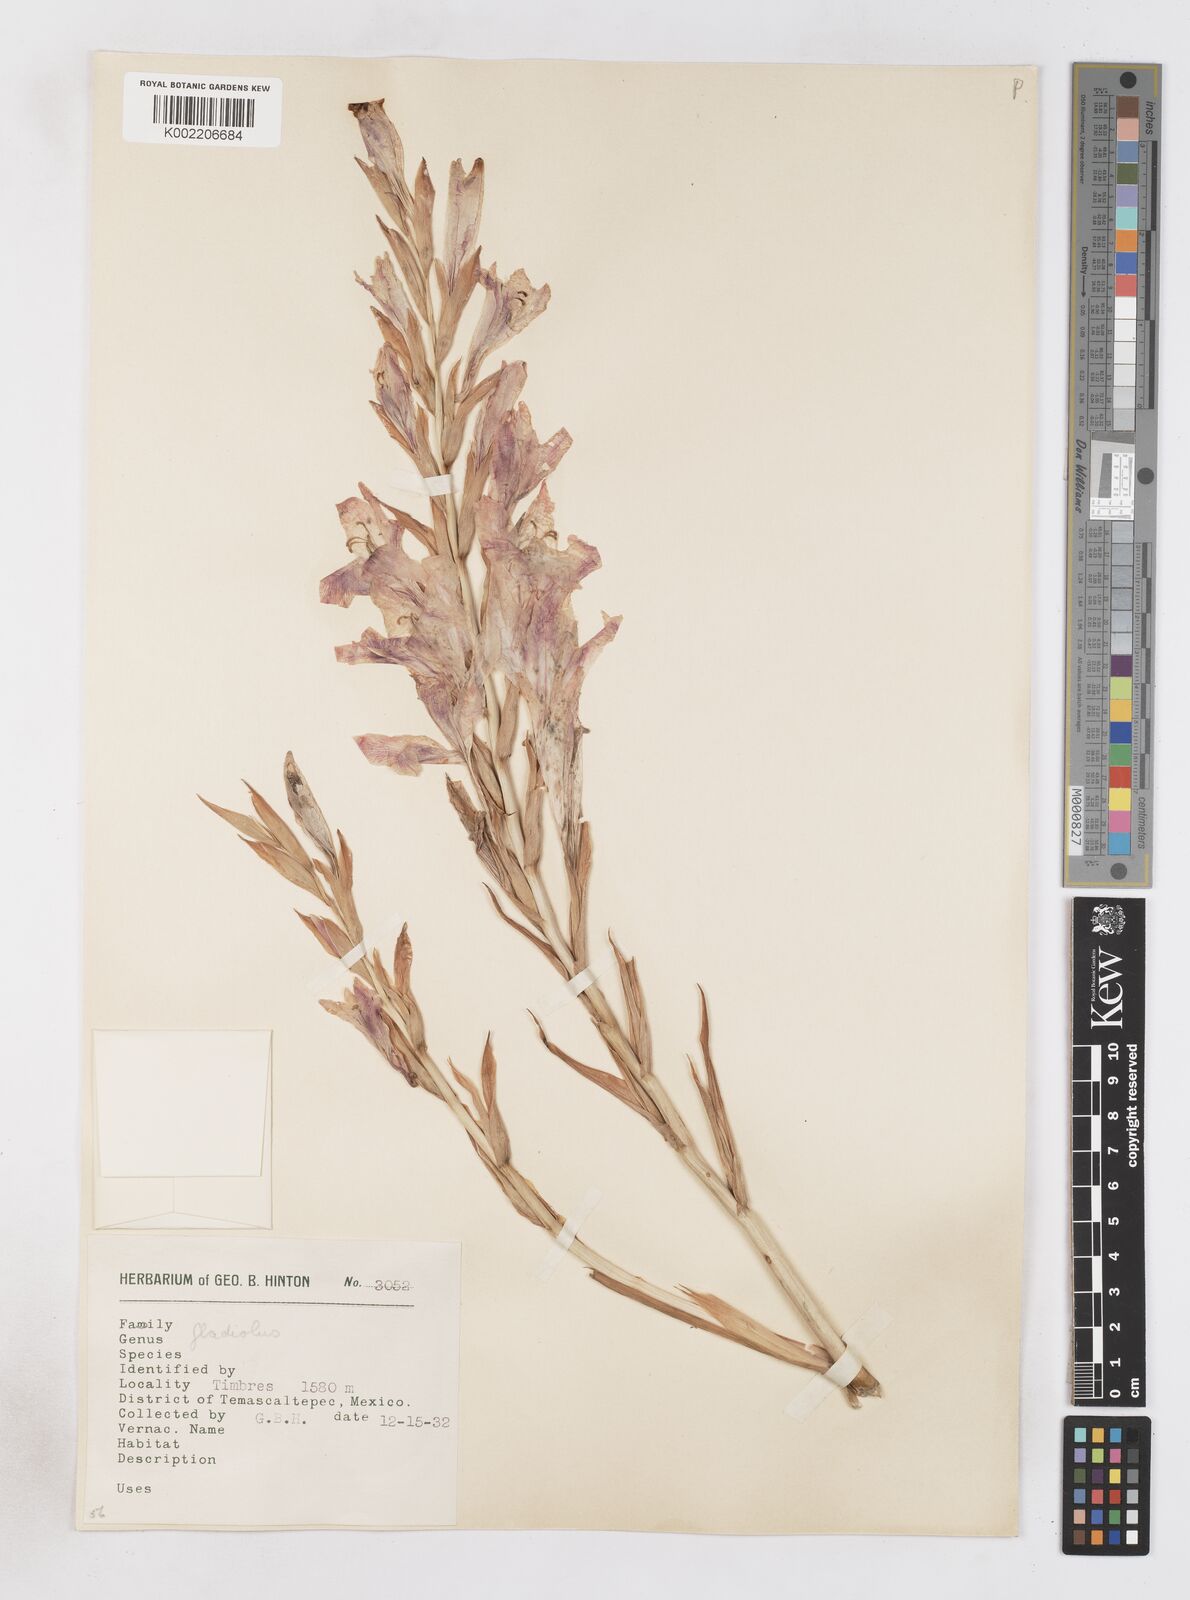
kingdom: Plantae
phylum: Tracheophyta
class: Liliopsida
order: Asparagales
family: Iridaceae
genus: Gladiolus
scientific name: Gladiolus
